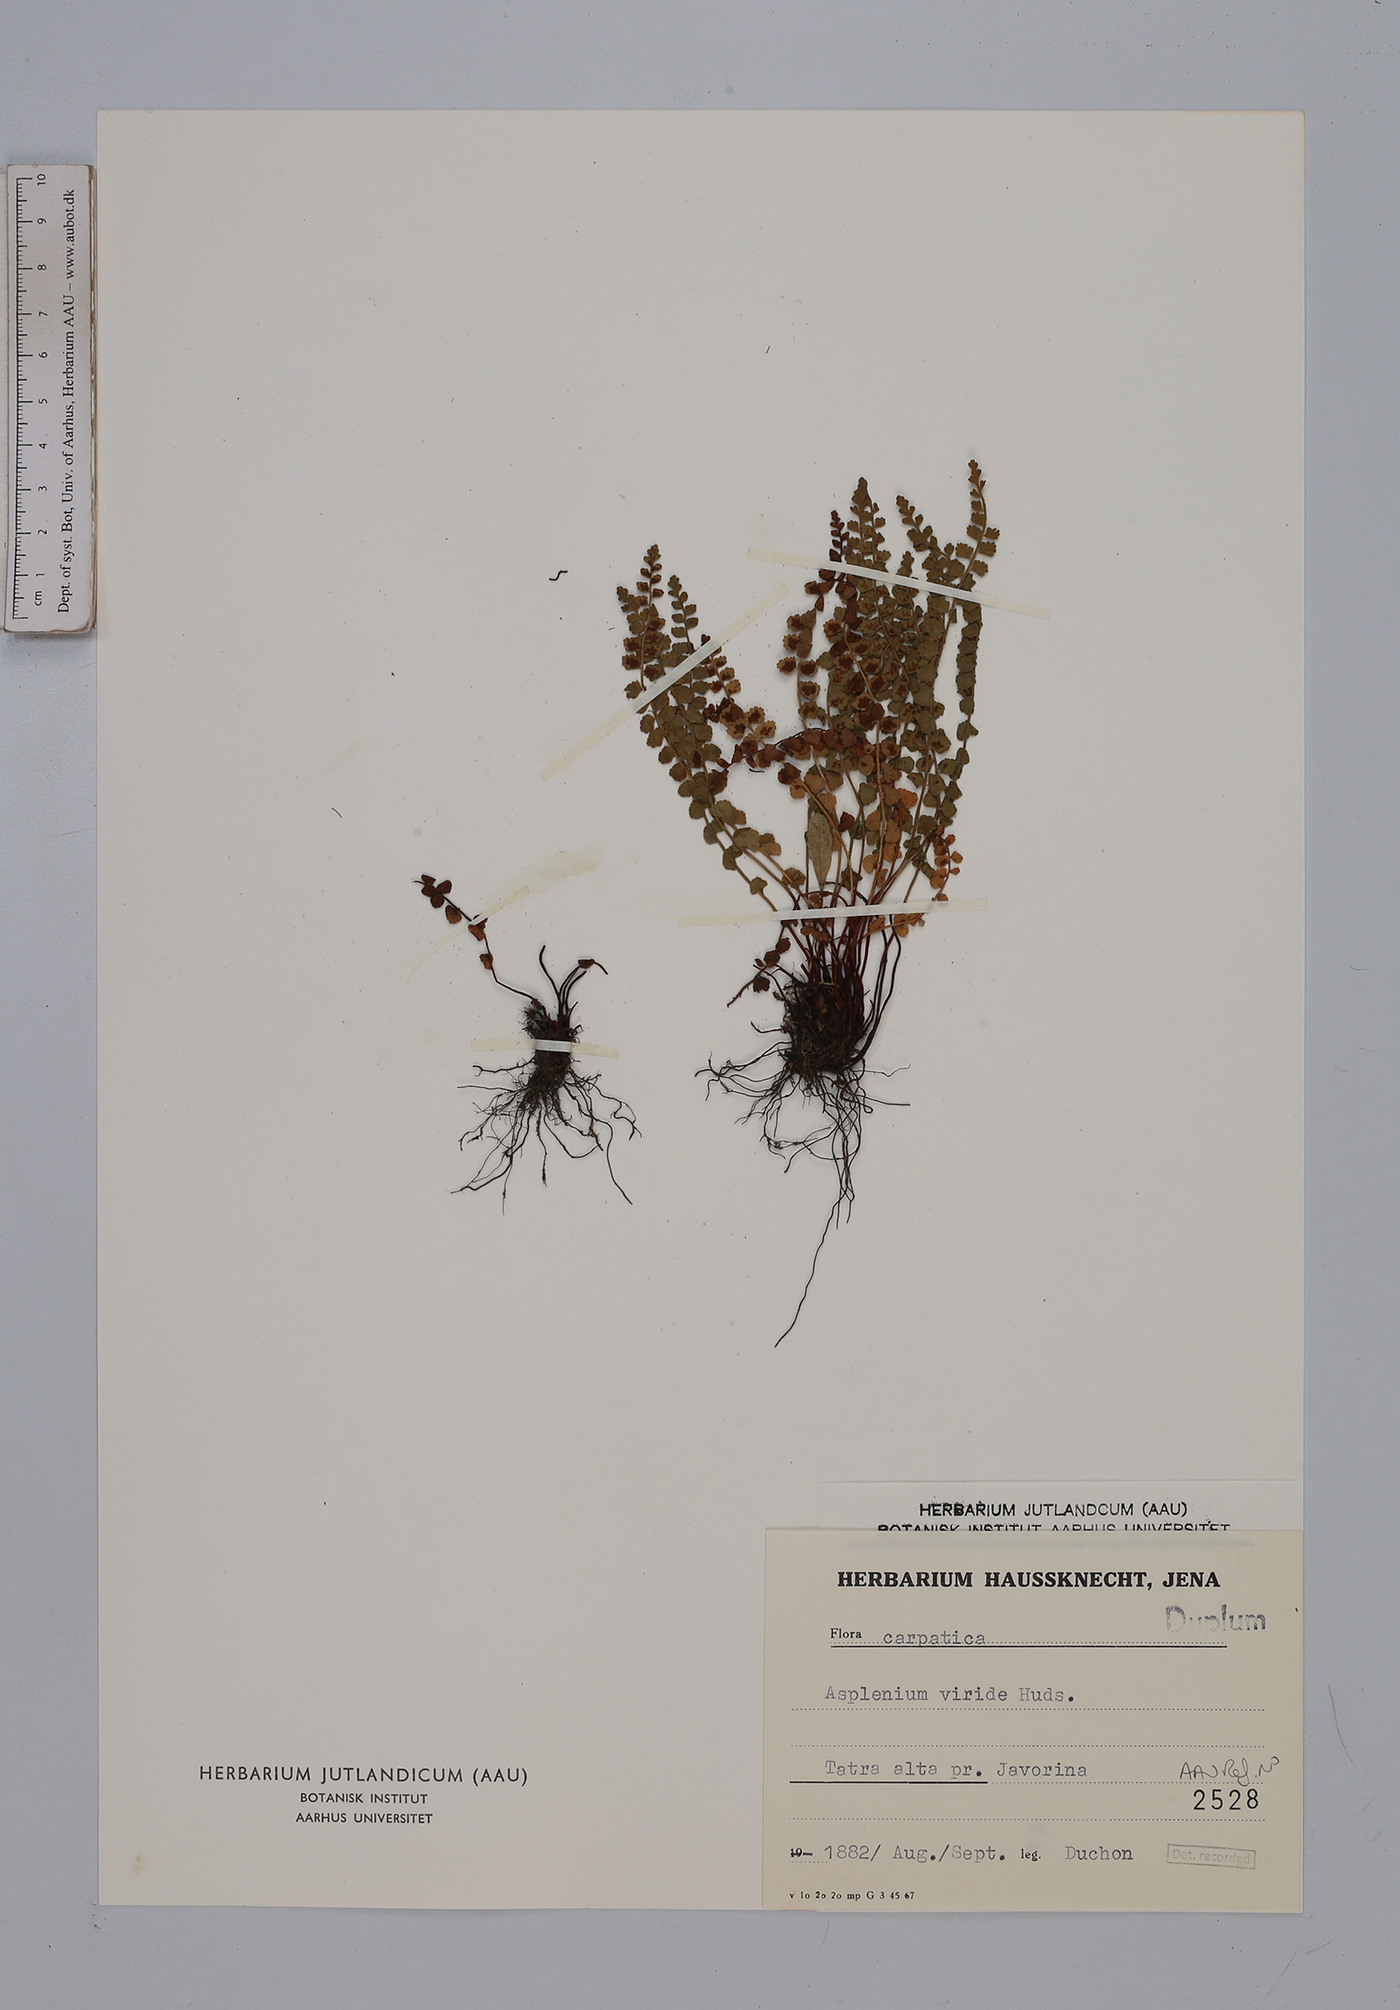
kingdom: Plantae
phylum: Tracheophyta
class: Polypodiopsida
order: Polypodiales
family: Aspleniaceae
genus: Asplenium
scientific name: Asplenium viride
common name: Green spleenwort
